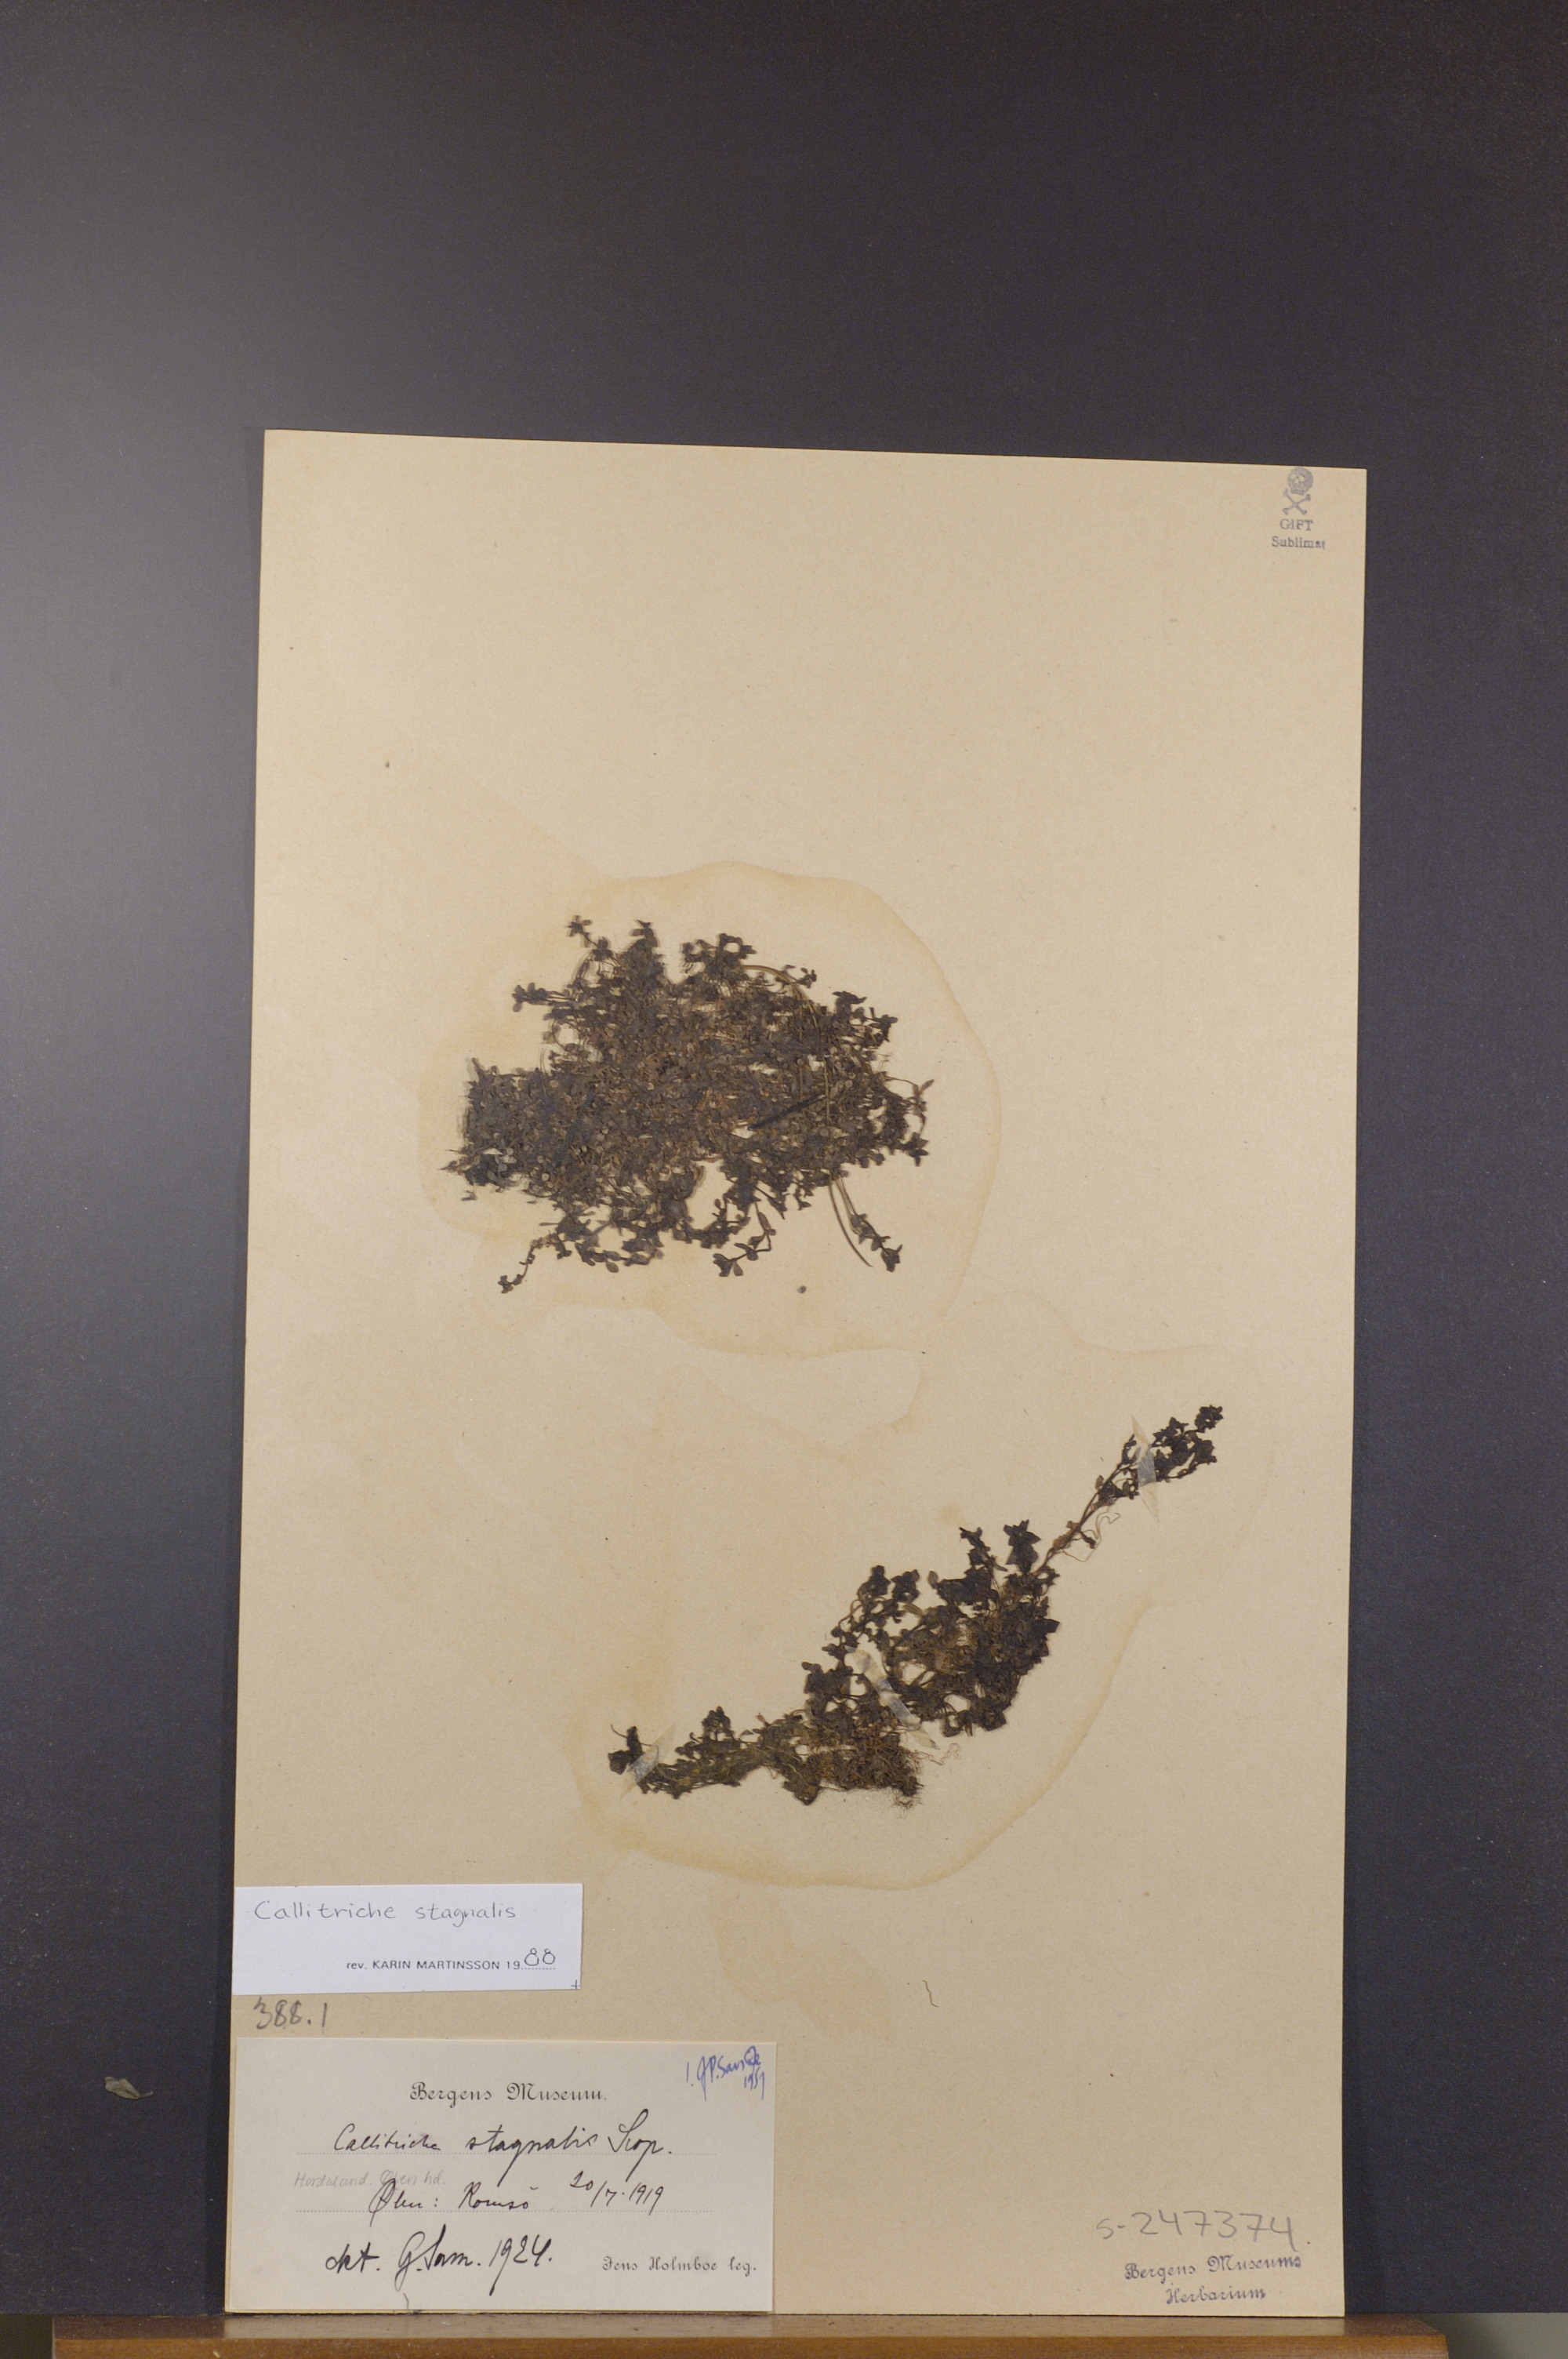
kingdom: Plantae
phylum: Tracheophyta
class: Magnoliopsida
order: Lamiales
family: Plantaginaceae
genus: Callitriche
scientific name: Callitriche stagnalis
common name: Common water-starwort
